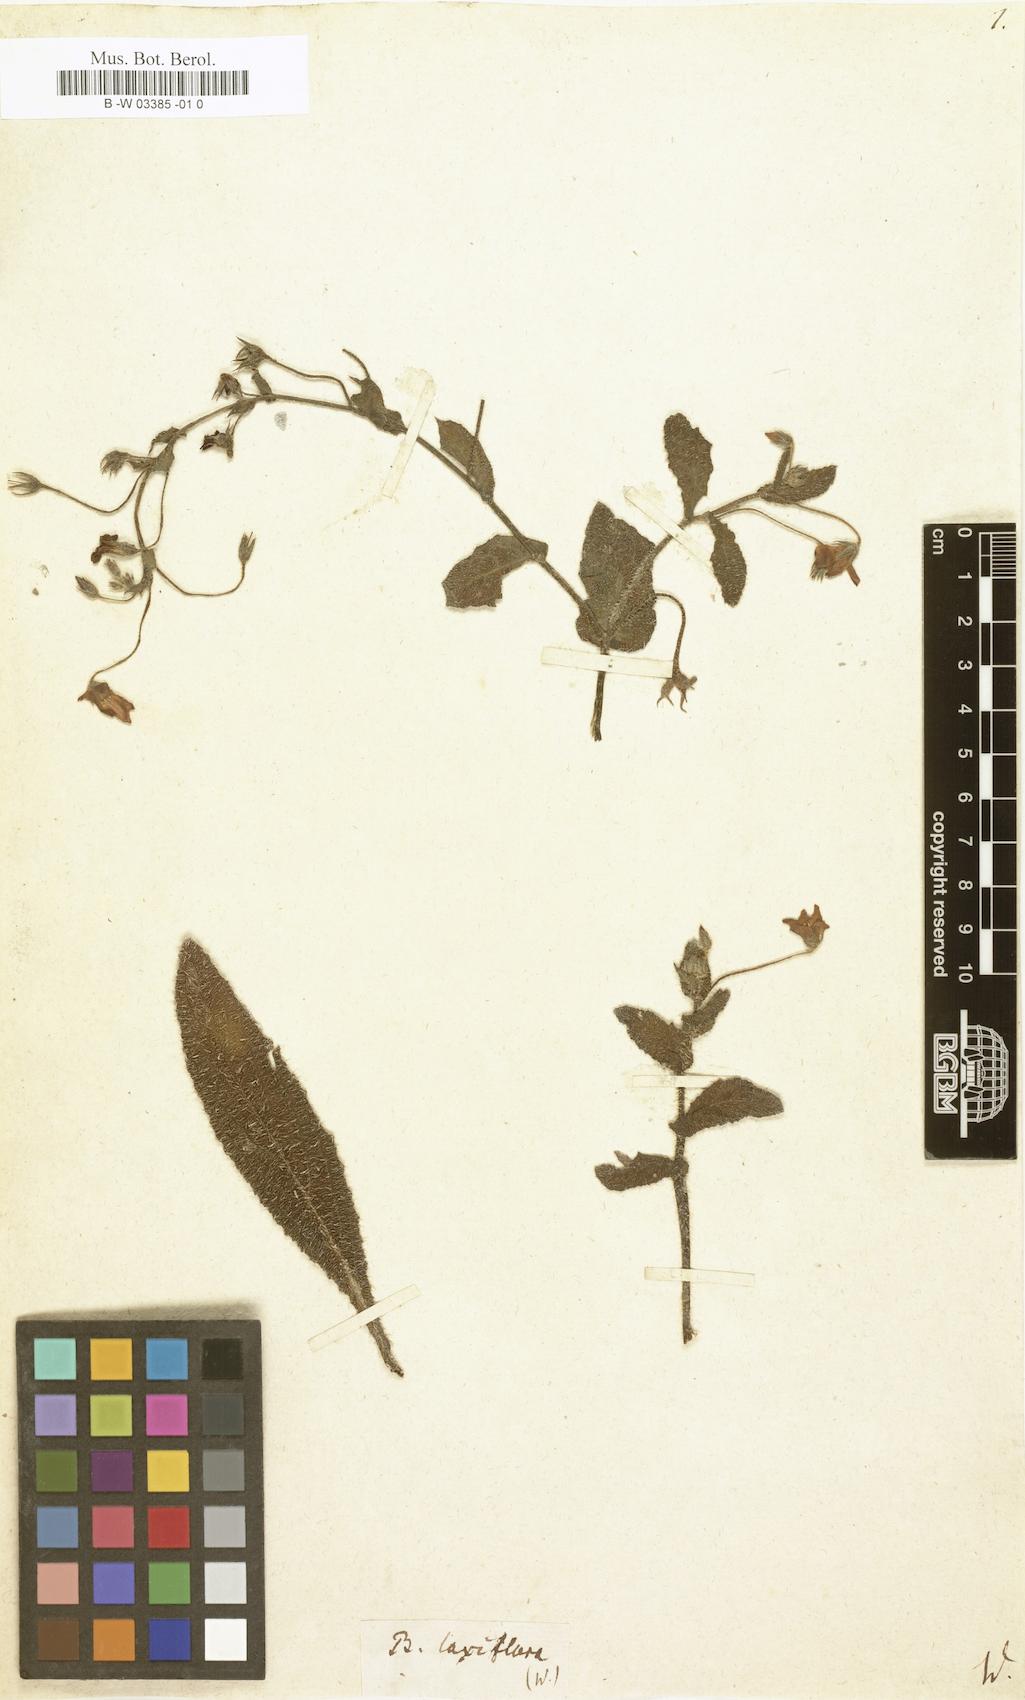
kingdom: Plantae
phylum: Tracheophyta
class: Magnoliopsida
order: Boraginales
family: Boraginaceae
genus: Borago
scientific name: Borago pygmaea
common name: Slender borage
